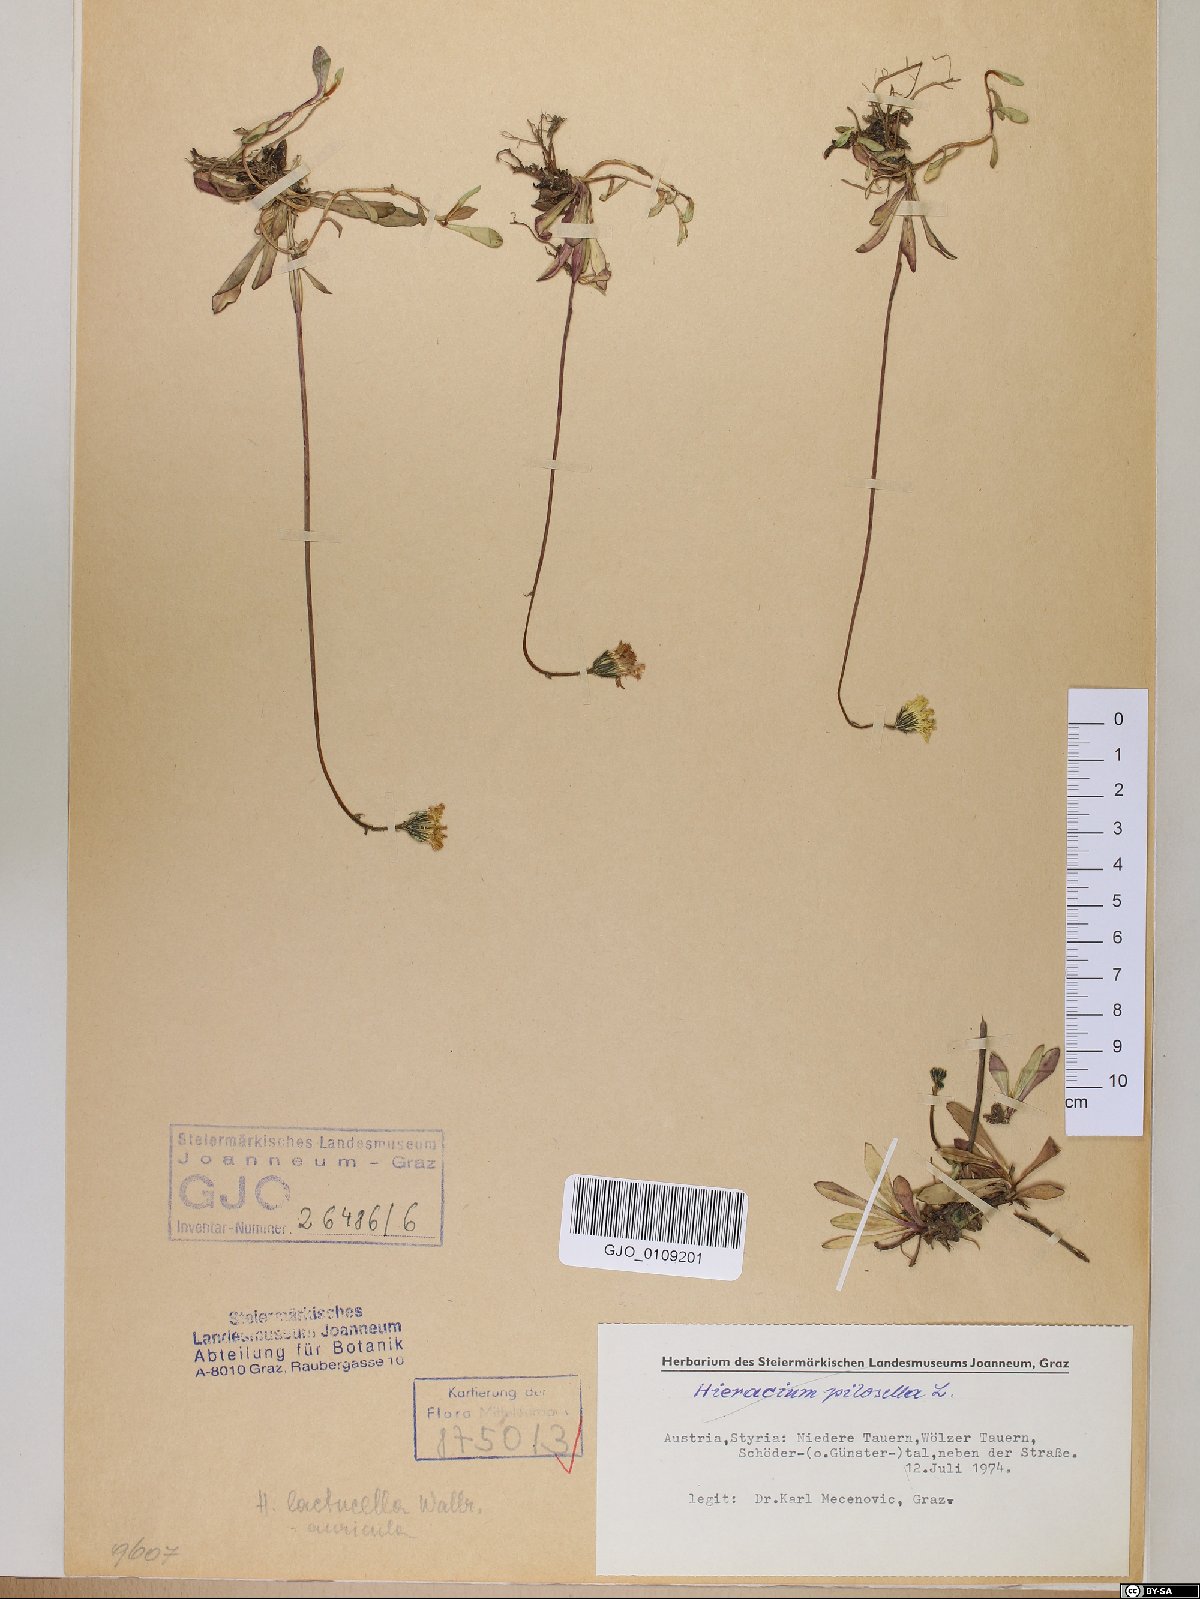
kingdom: Plantae
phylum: Tracheophyta
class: Magnoliopsida
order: Asterales
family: Asteraceae
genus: Pilosella
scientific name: Pilosella lactucella
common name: Glaucous fox-and-cubs
